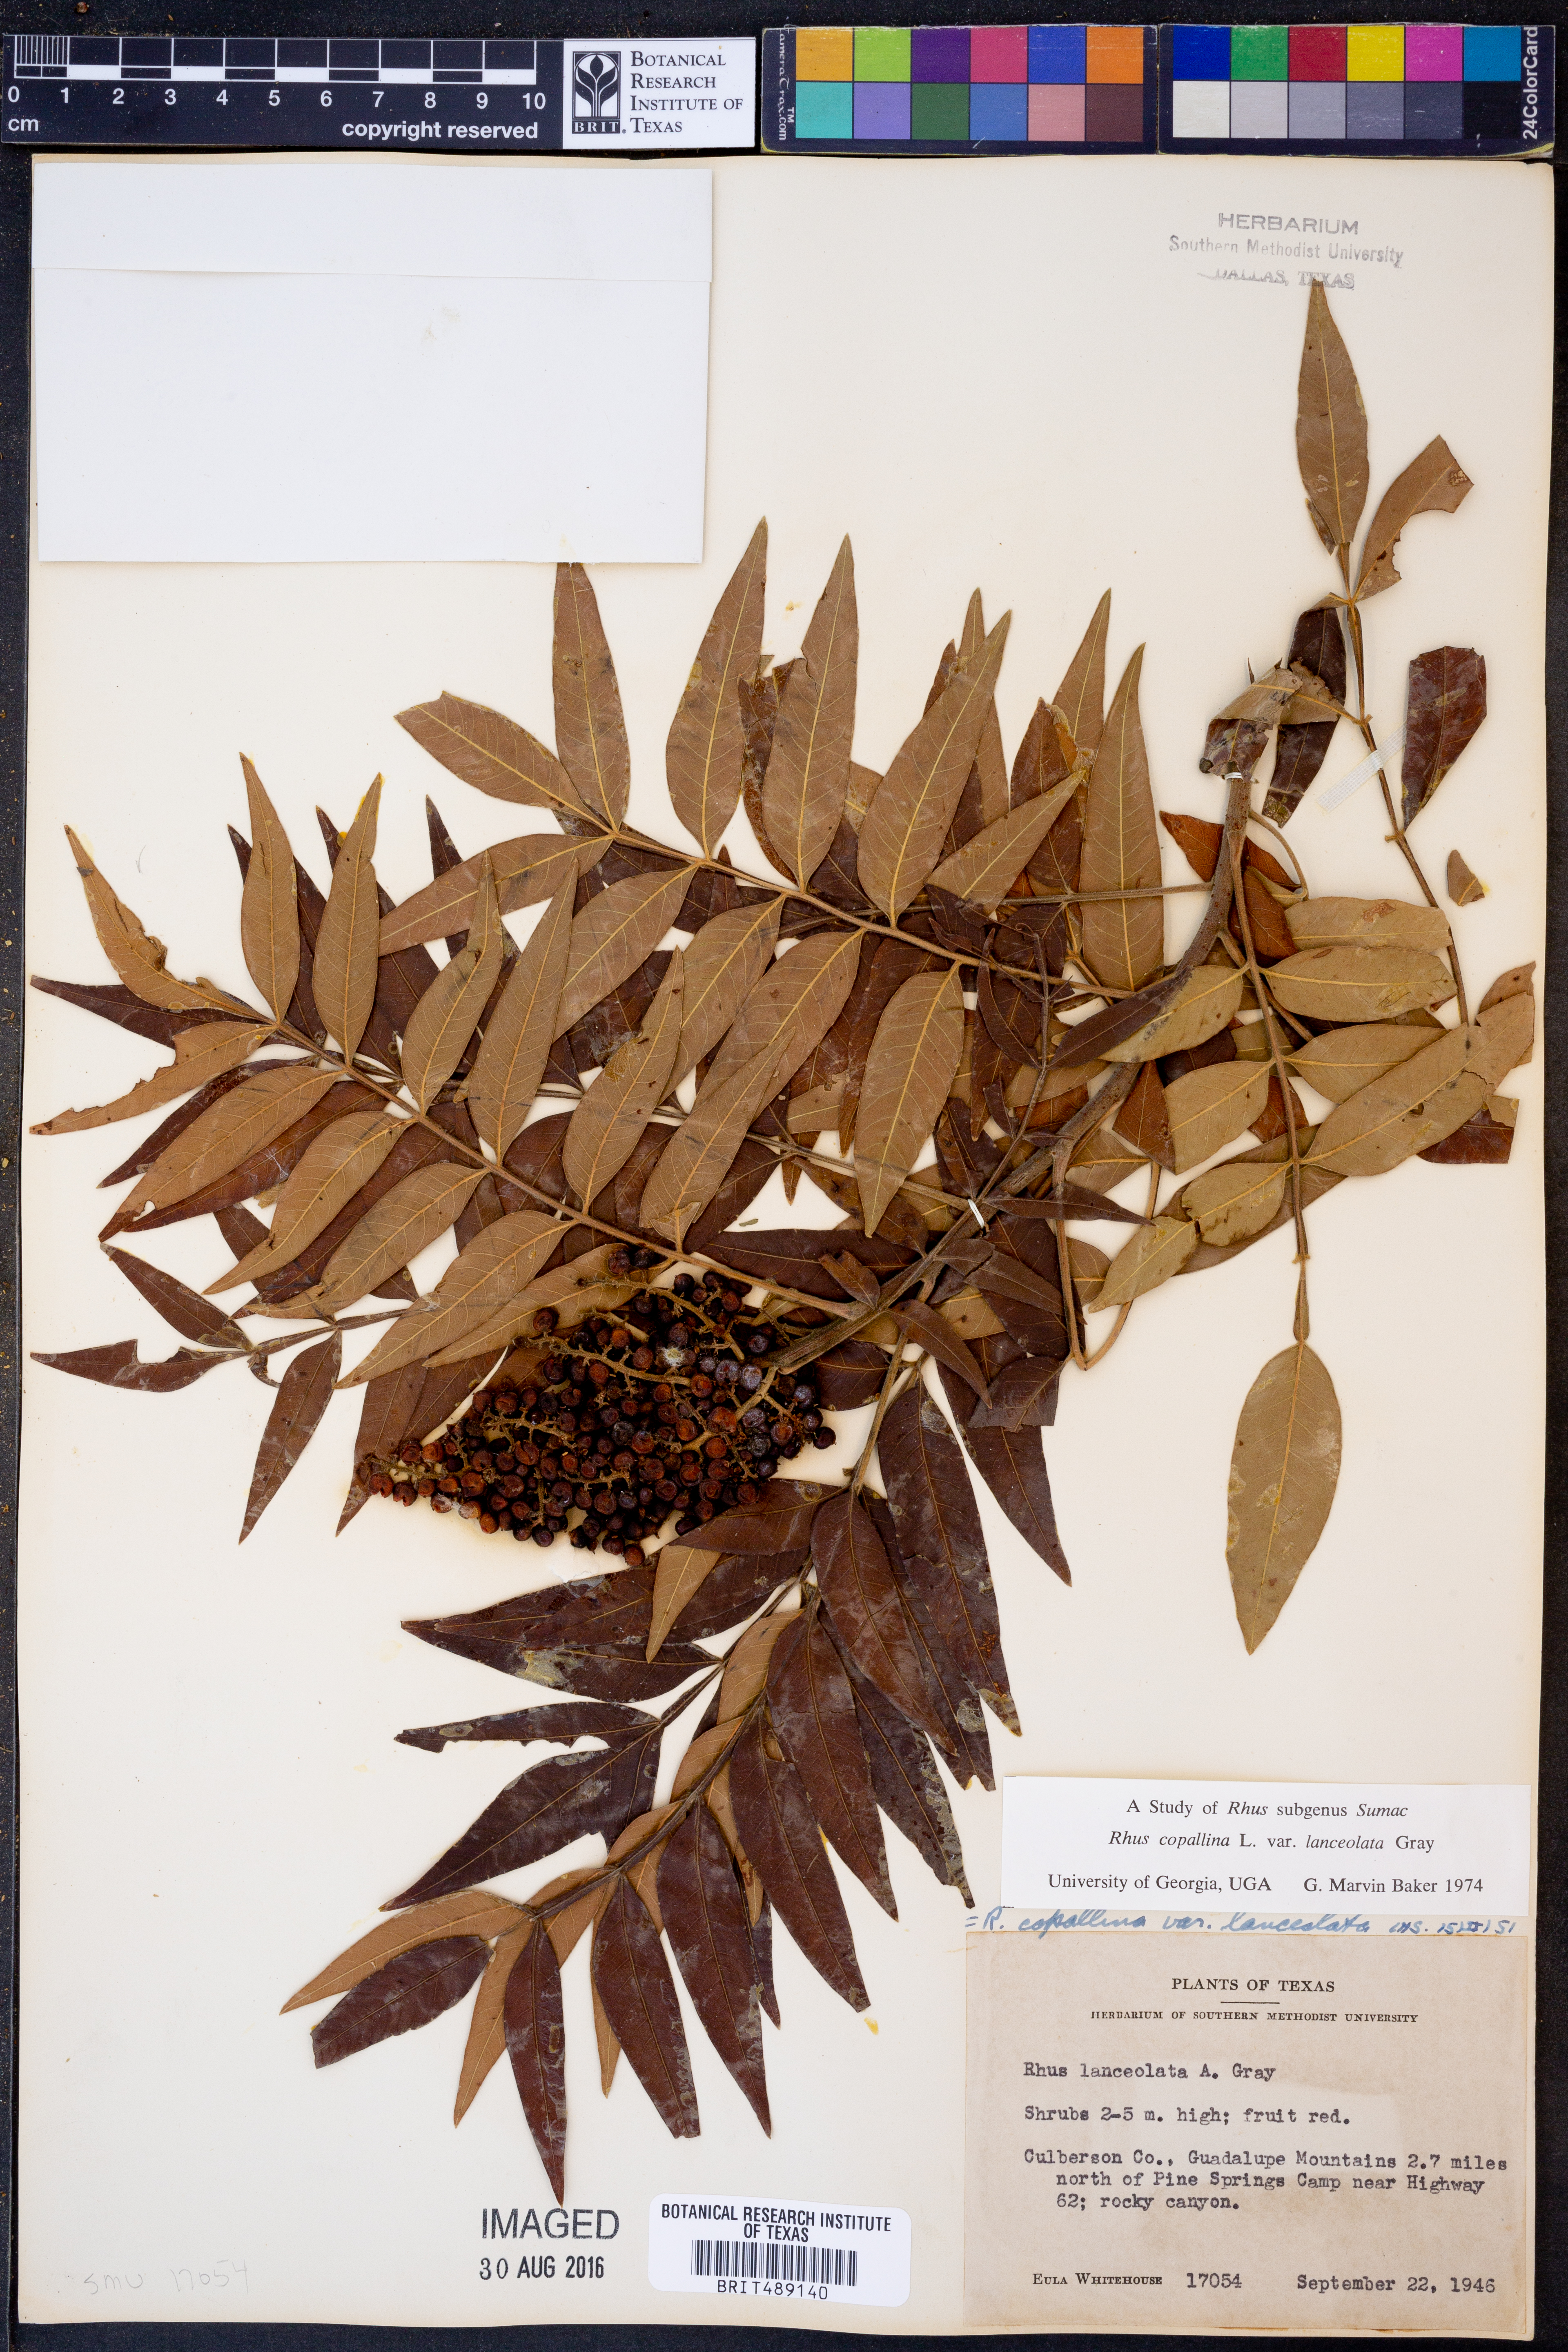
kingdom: Plantae
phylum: Tracheophyta
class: Magnoliopsida
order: Sapindales
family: Anacardiaceae
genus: Rhus
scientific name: Rhus lanceolata
